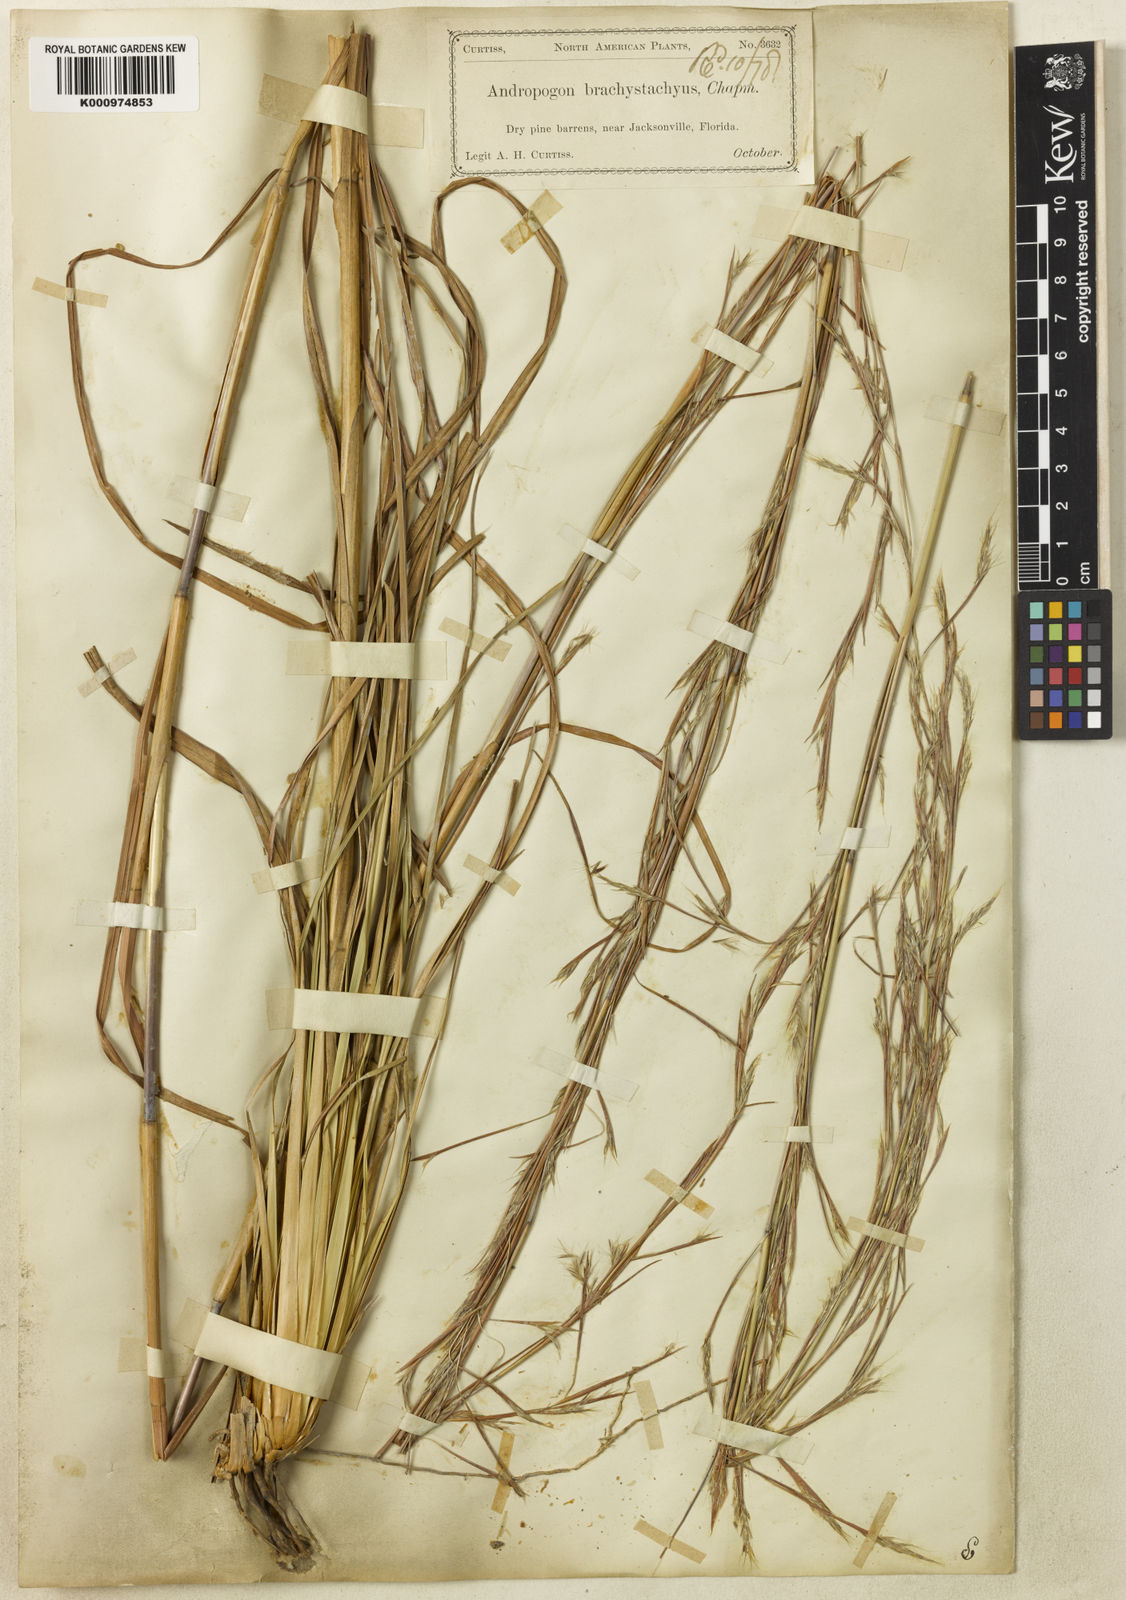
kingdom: Plantae
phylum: Tracheophyta
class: Liliopsida
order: Poales
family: Poaceae
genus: Andropogon
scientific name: Andropogon brachystachyus
